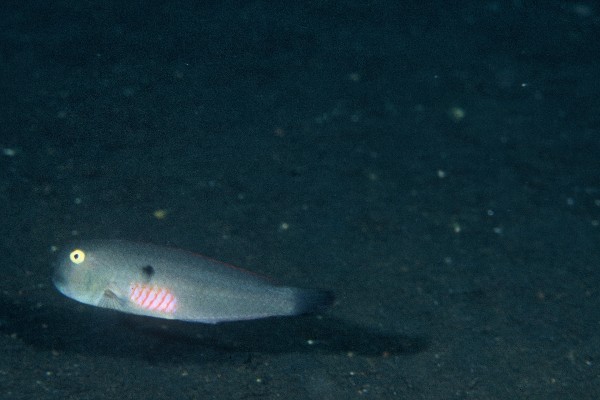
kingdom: Animalia
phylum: Chordata
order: Perciformes
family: Labridae
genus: Iniistius
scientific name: Iniistius pentadactylus
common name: Fivefinger razorfish
